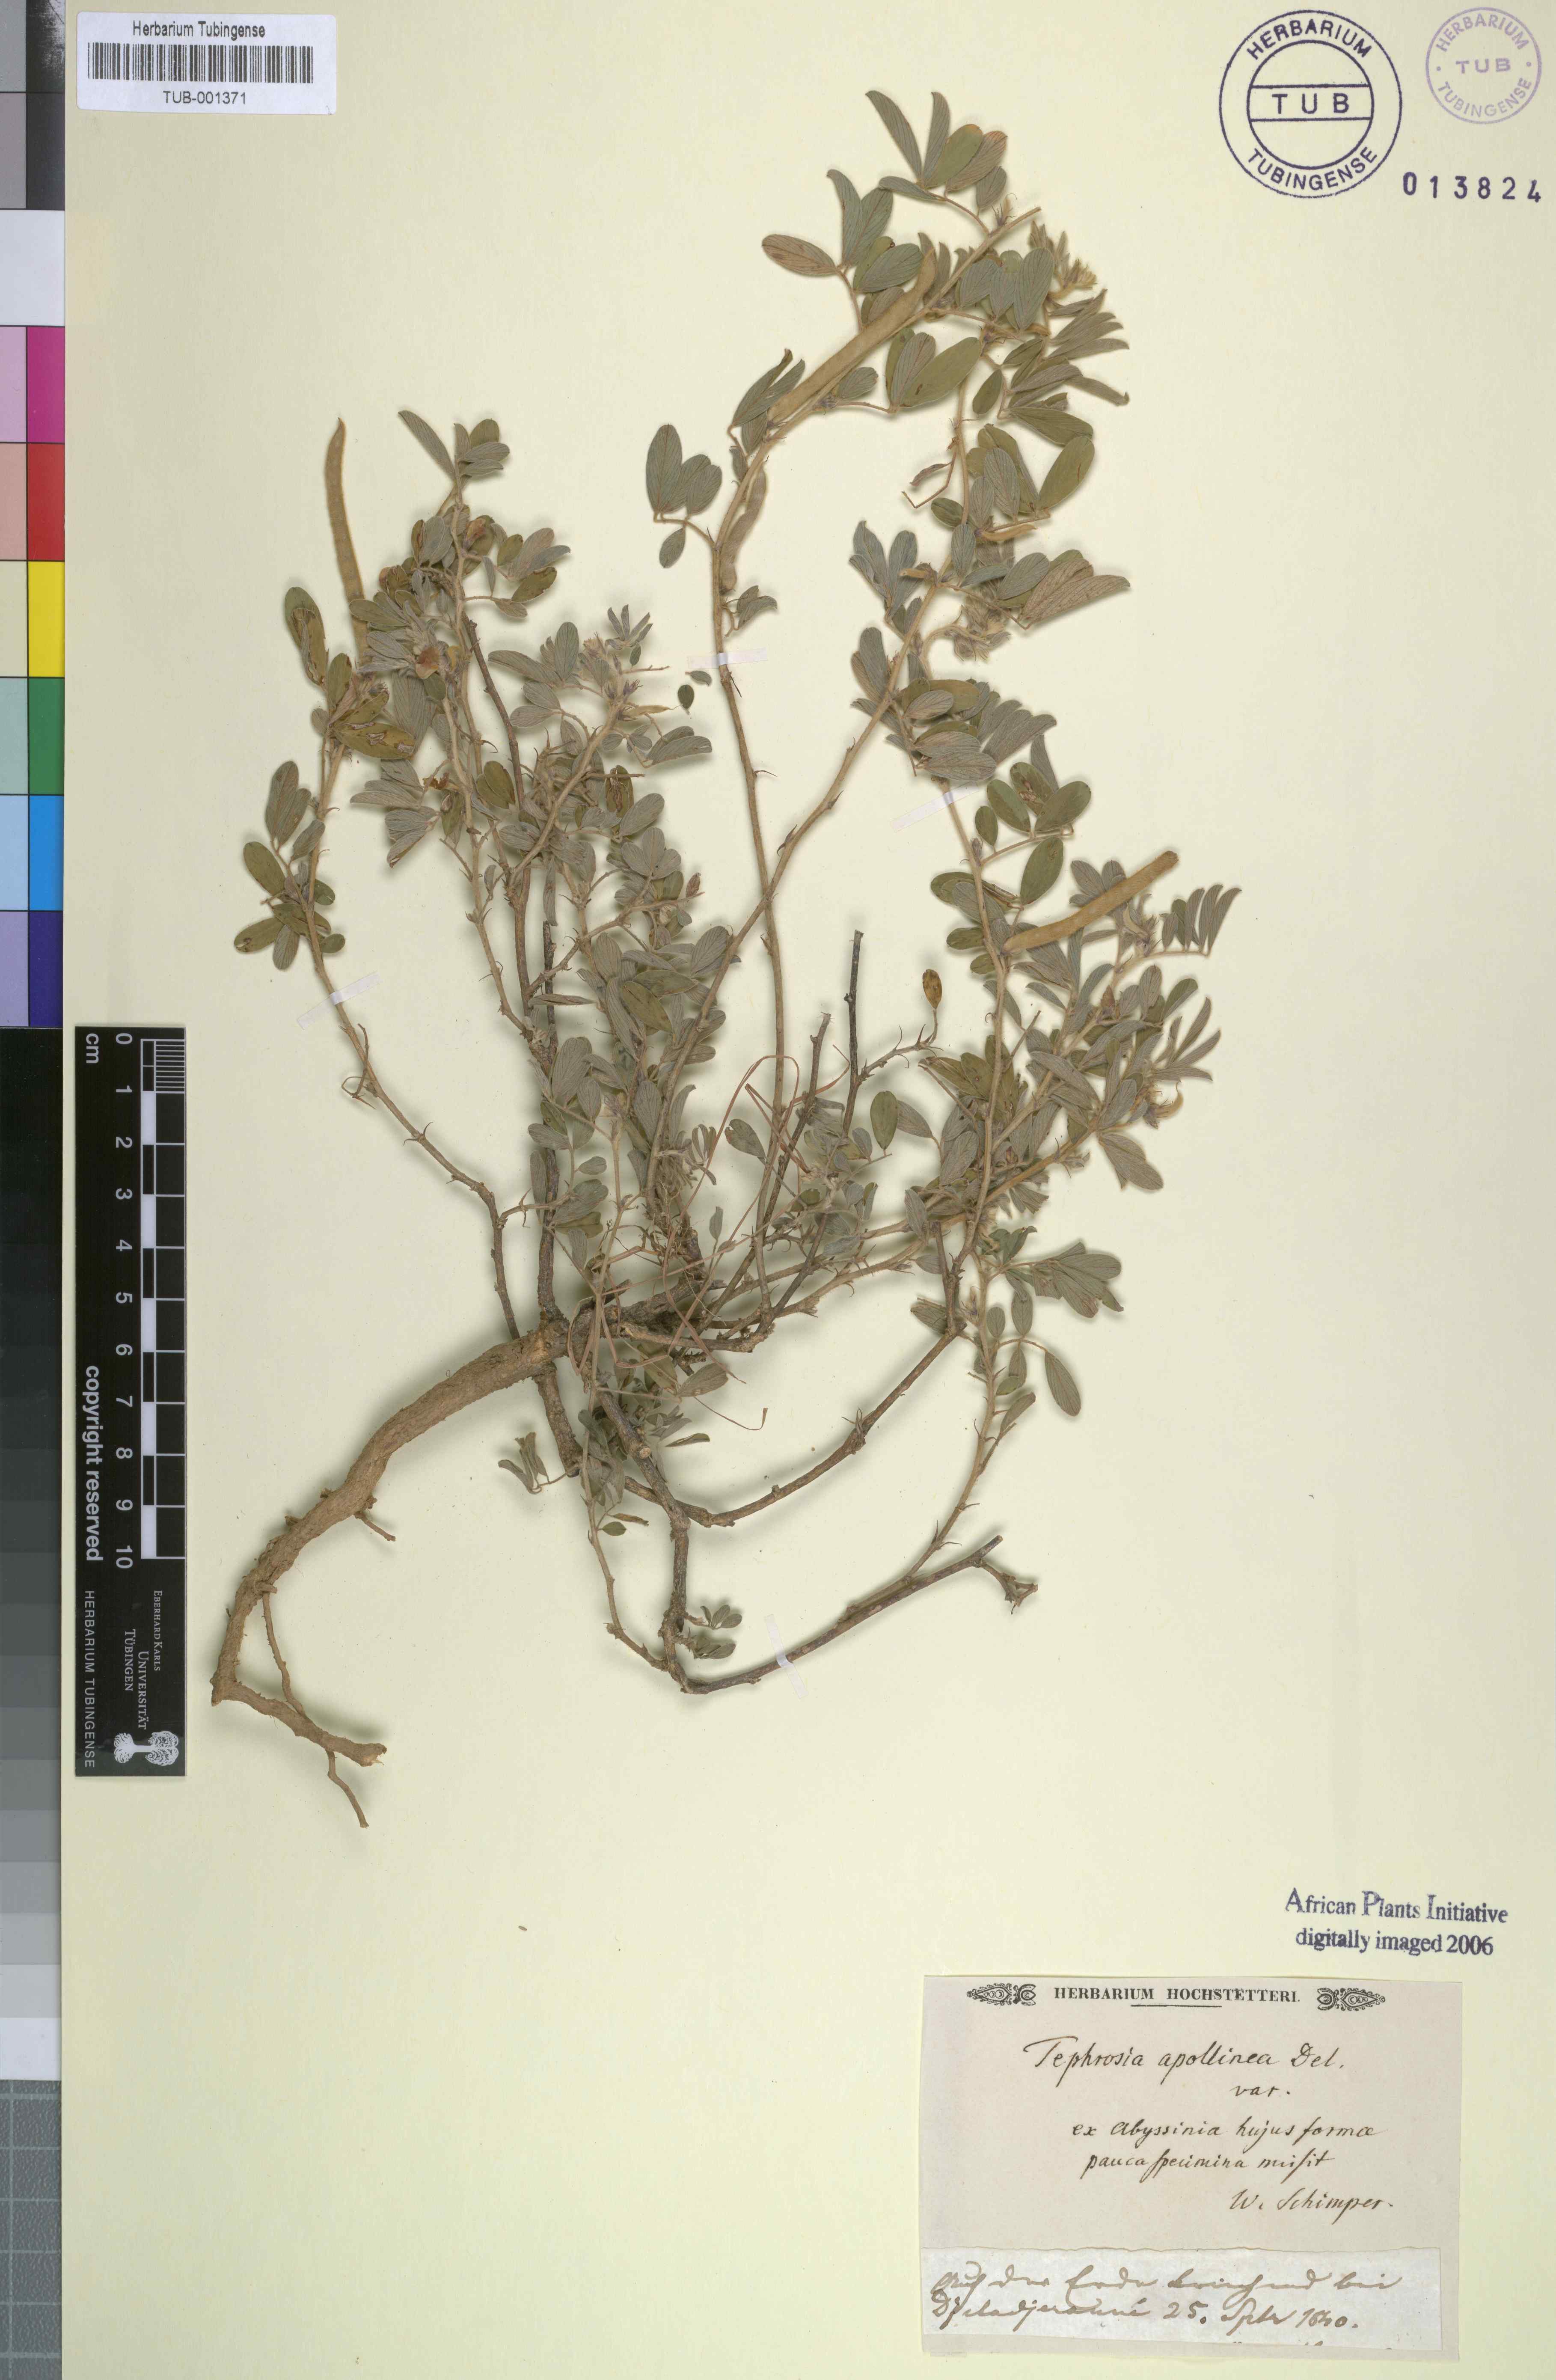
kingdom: Plantae
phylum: Tracheophyta
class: Magnoliopsida
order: Fabales
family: Fabaceae
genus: Tephrosia
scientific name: Tephrosia purpurea
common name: Fishpoison
